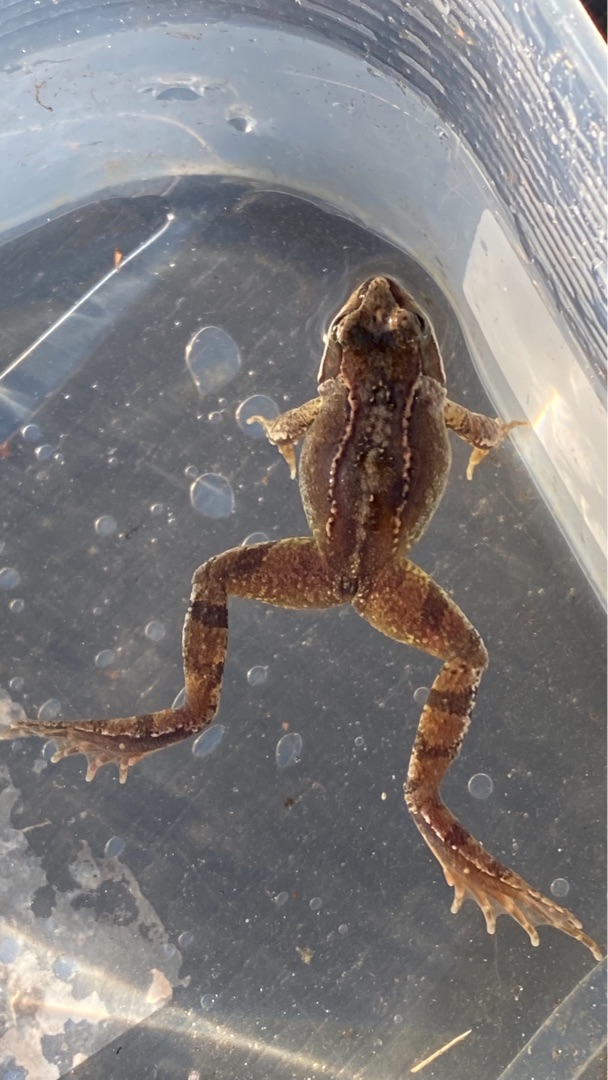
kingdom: Animalia
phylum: Chordata
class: Amphibia
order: Anura
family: Ranidae
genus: Rana
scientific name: Rana temporaria
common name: Butsnudet frø
